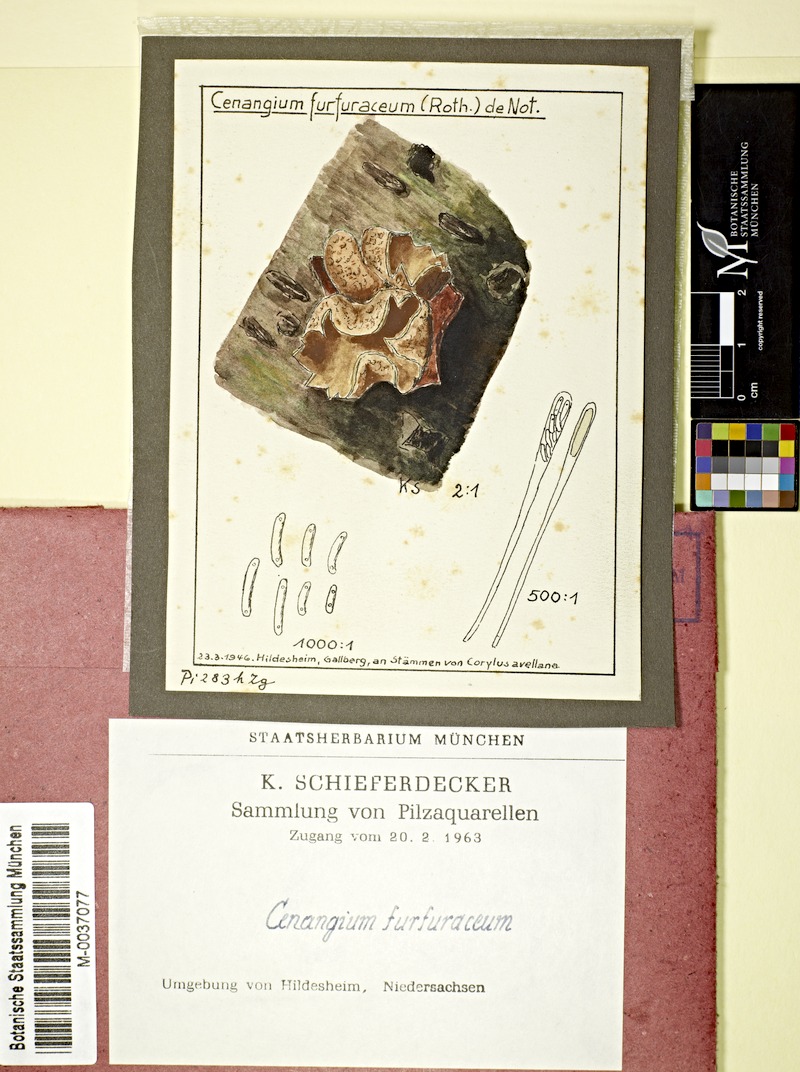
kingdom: Fungi
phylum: Ascomycota
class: Leotiomycetes
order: Helotiales
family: Cenangiaceae
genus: Encoelia
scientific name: Encoelia furfuracea
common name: Spring hazelcup
